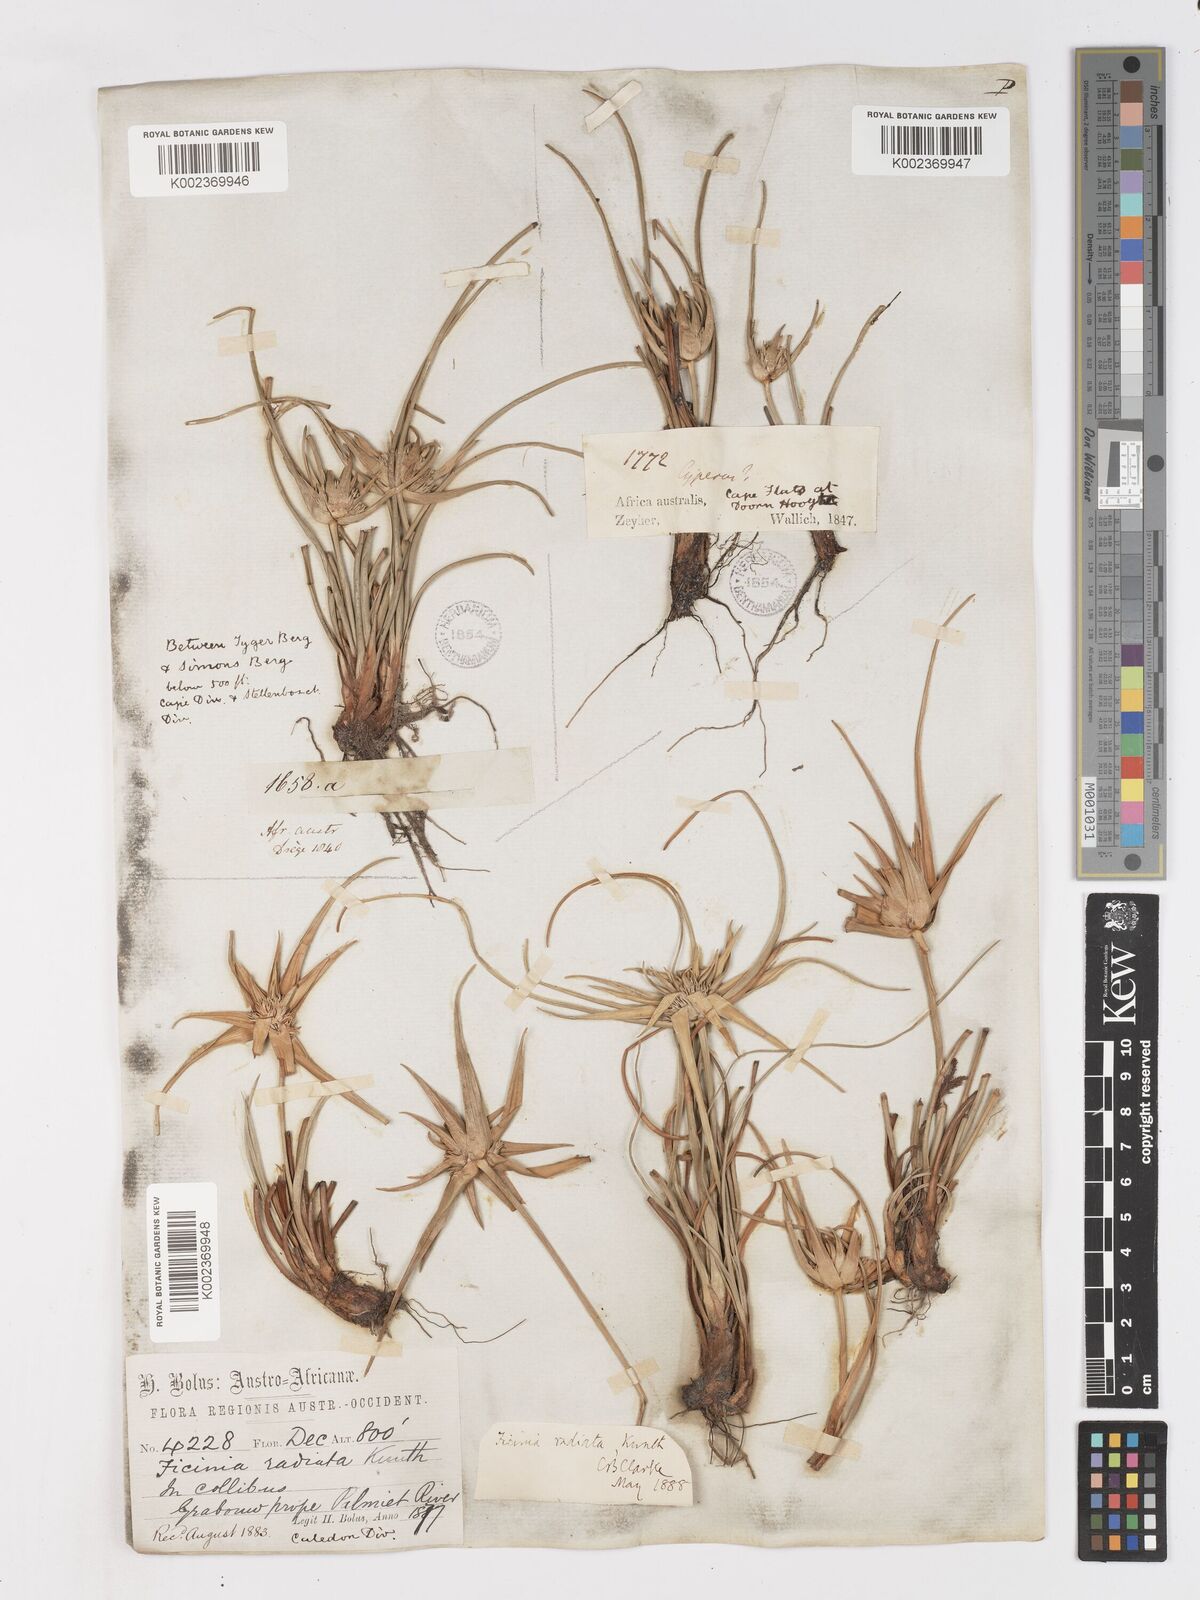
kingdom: Plantae
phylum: Tracheophyta
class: Liliopsida
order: Poales
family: Cyperaceae
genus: Ficinia
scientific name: Ficinia radiata
